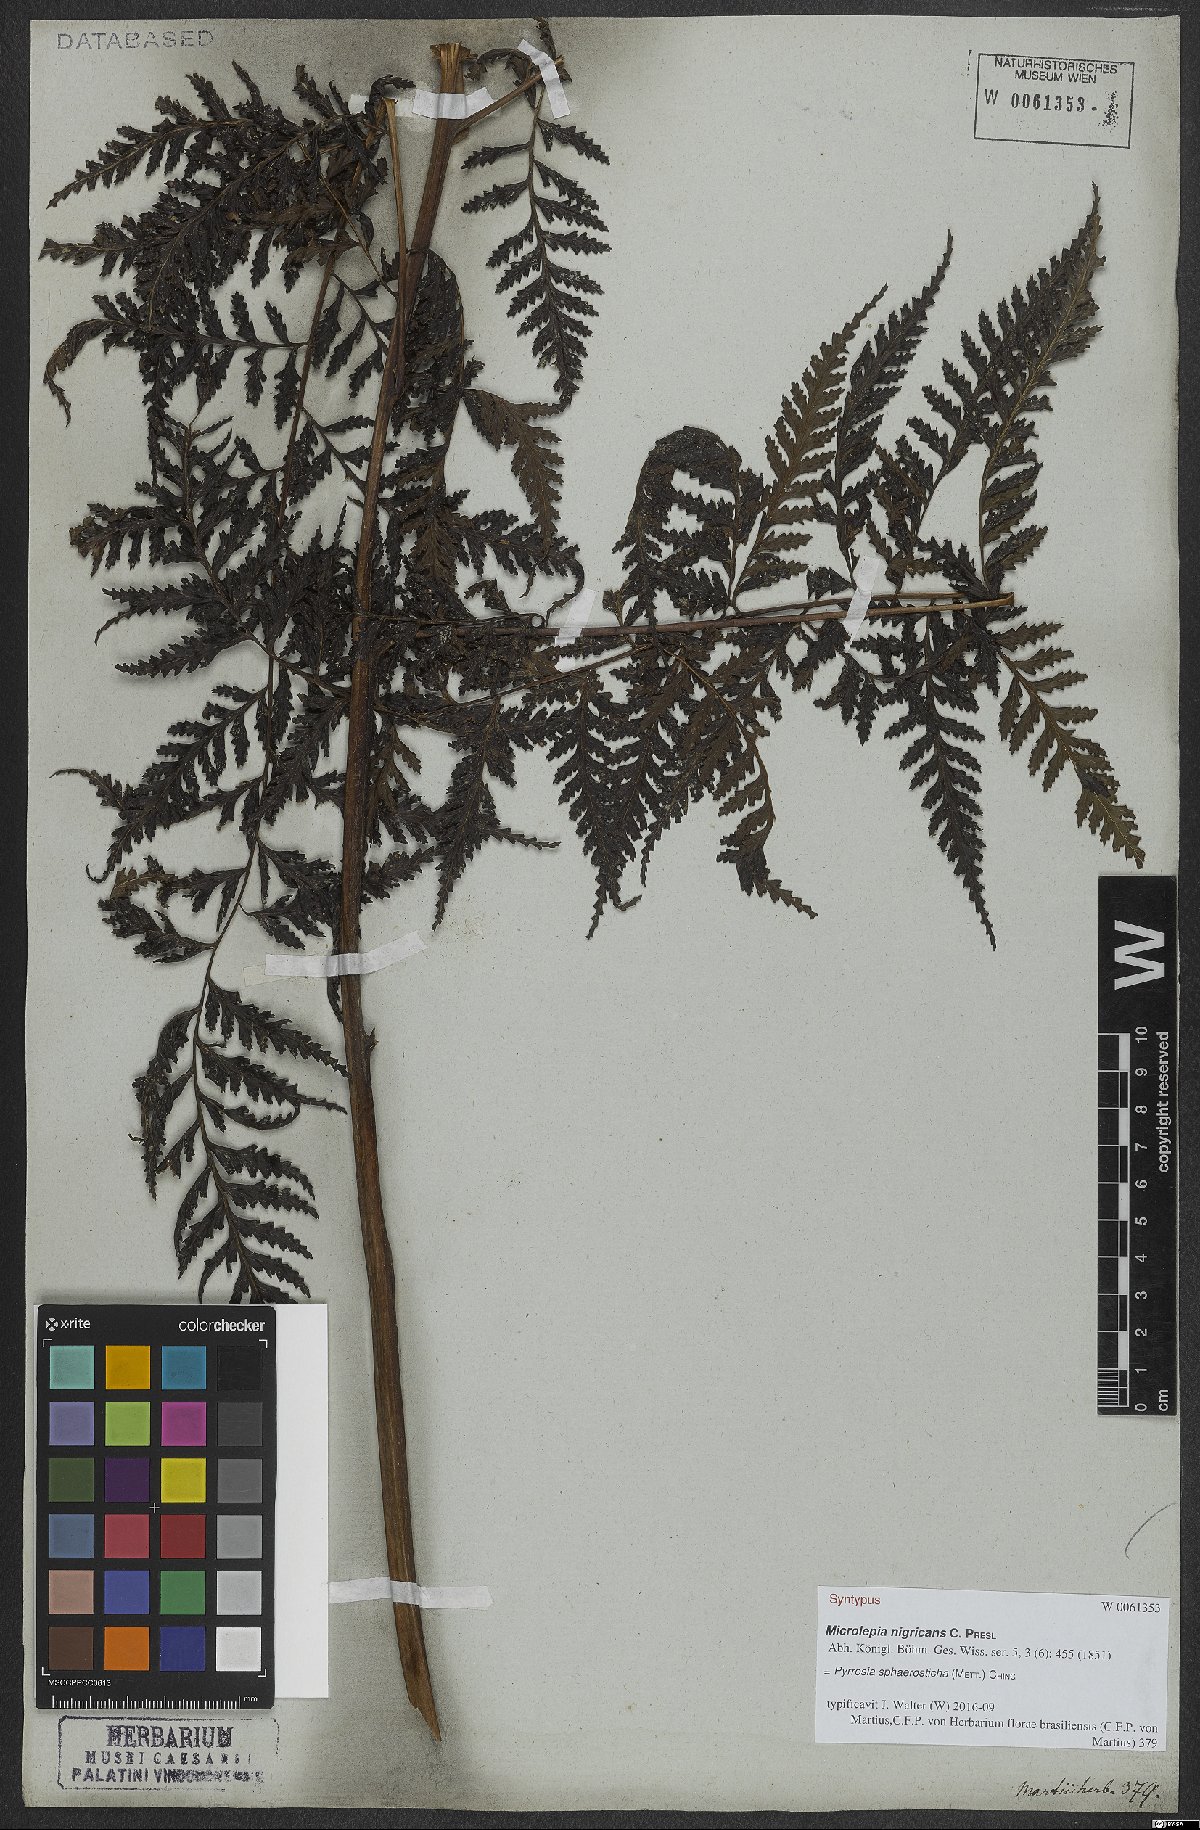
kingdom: Plantae
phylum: Tracheophyta
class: Polypodiopsida
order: Polypodiales
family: Polypodiaceae
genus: Pyrrosia
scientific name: Pyrrosia sphaerosticha
